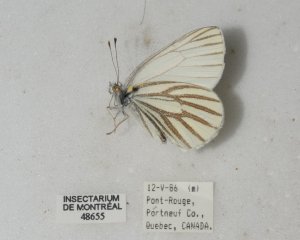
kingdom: Animalia
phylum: Arthropoda
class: Insecta
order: Lepidoptera
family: Pieridae
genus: Pieris
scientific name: Pieris oleracea
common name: Mustard White
